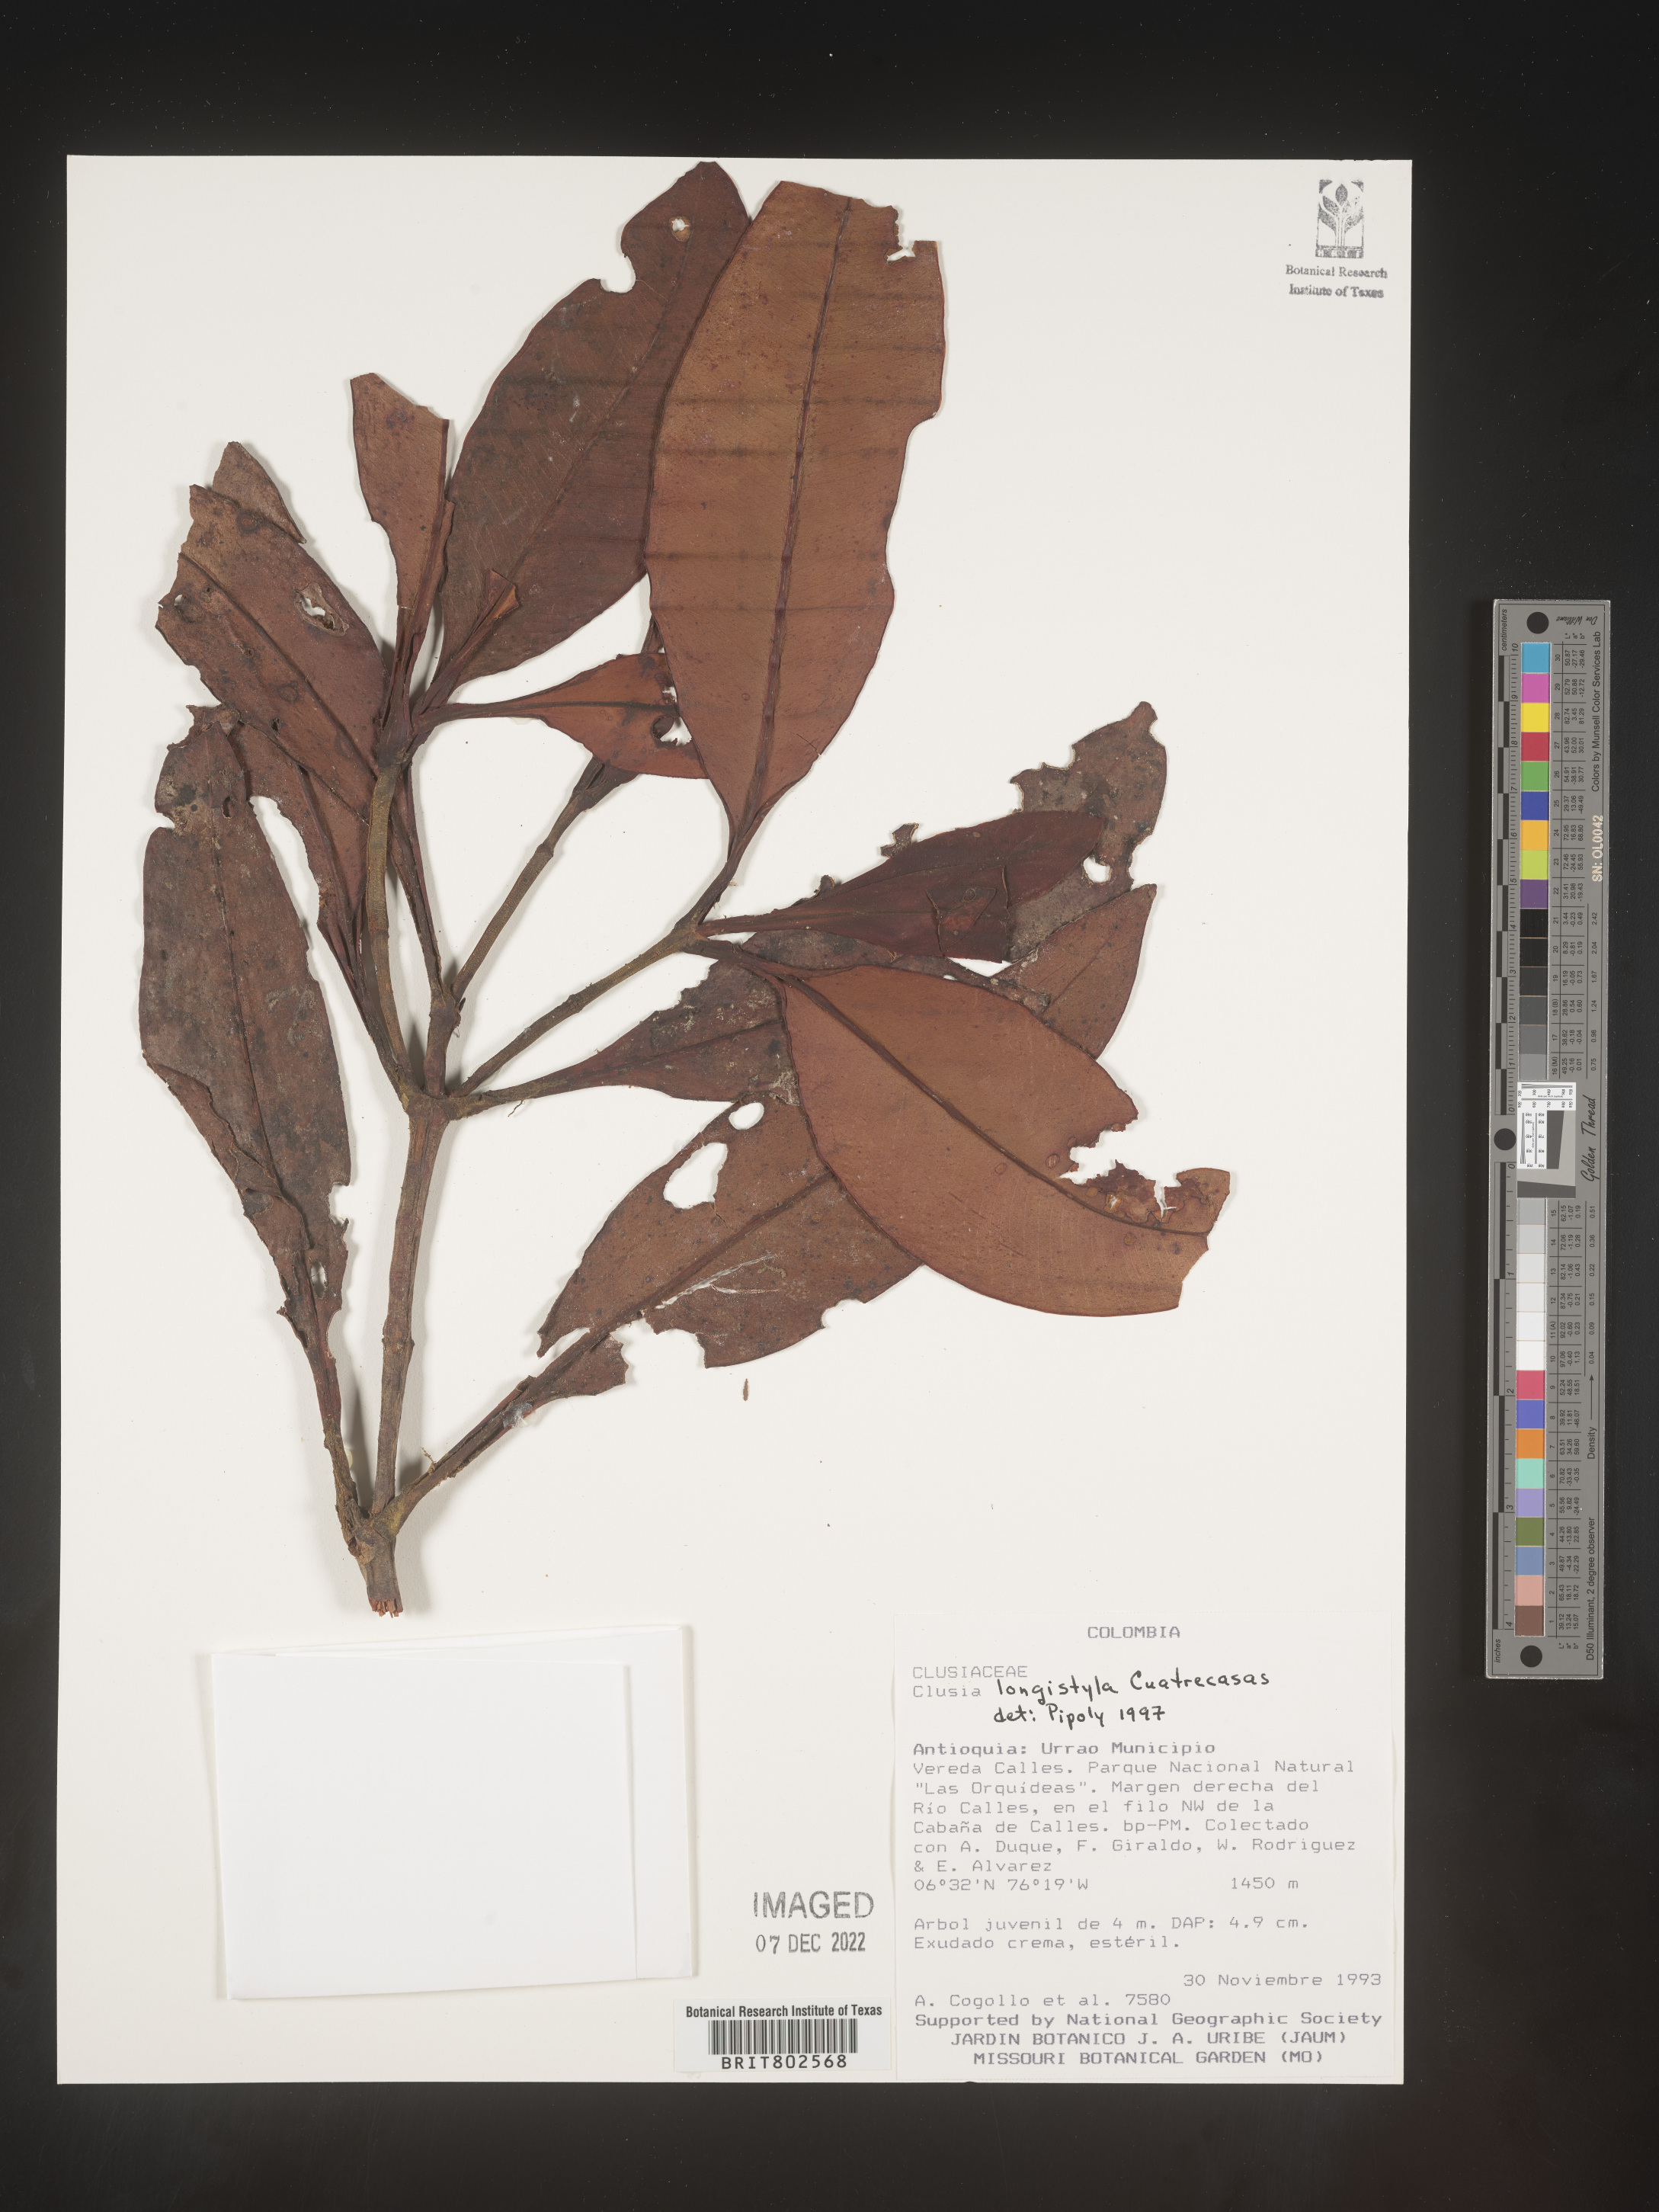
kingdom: Plantae
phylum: Tracheophyta
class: Magnoliopsida
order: Malpighiales
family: Clusiaceae
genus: Clusia
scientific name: Clusia loretensis
